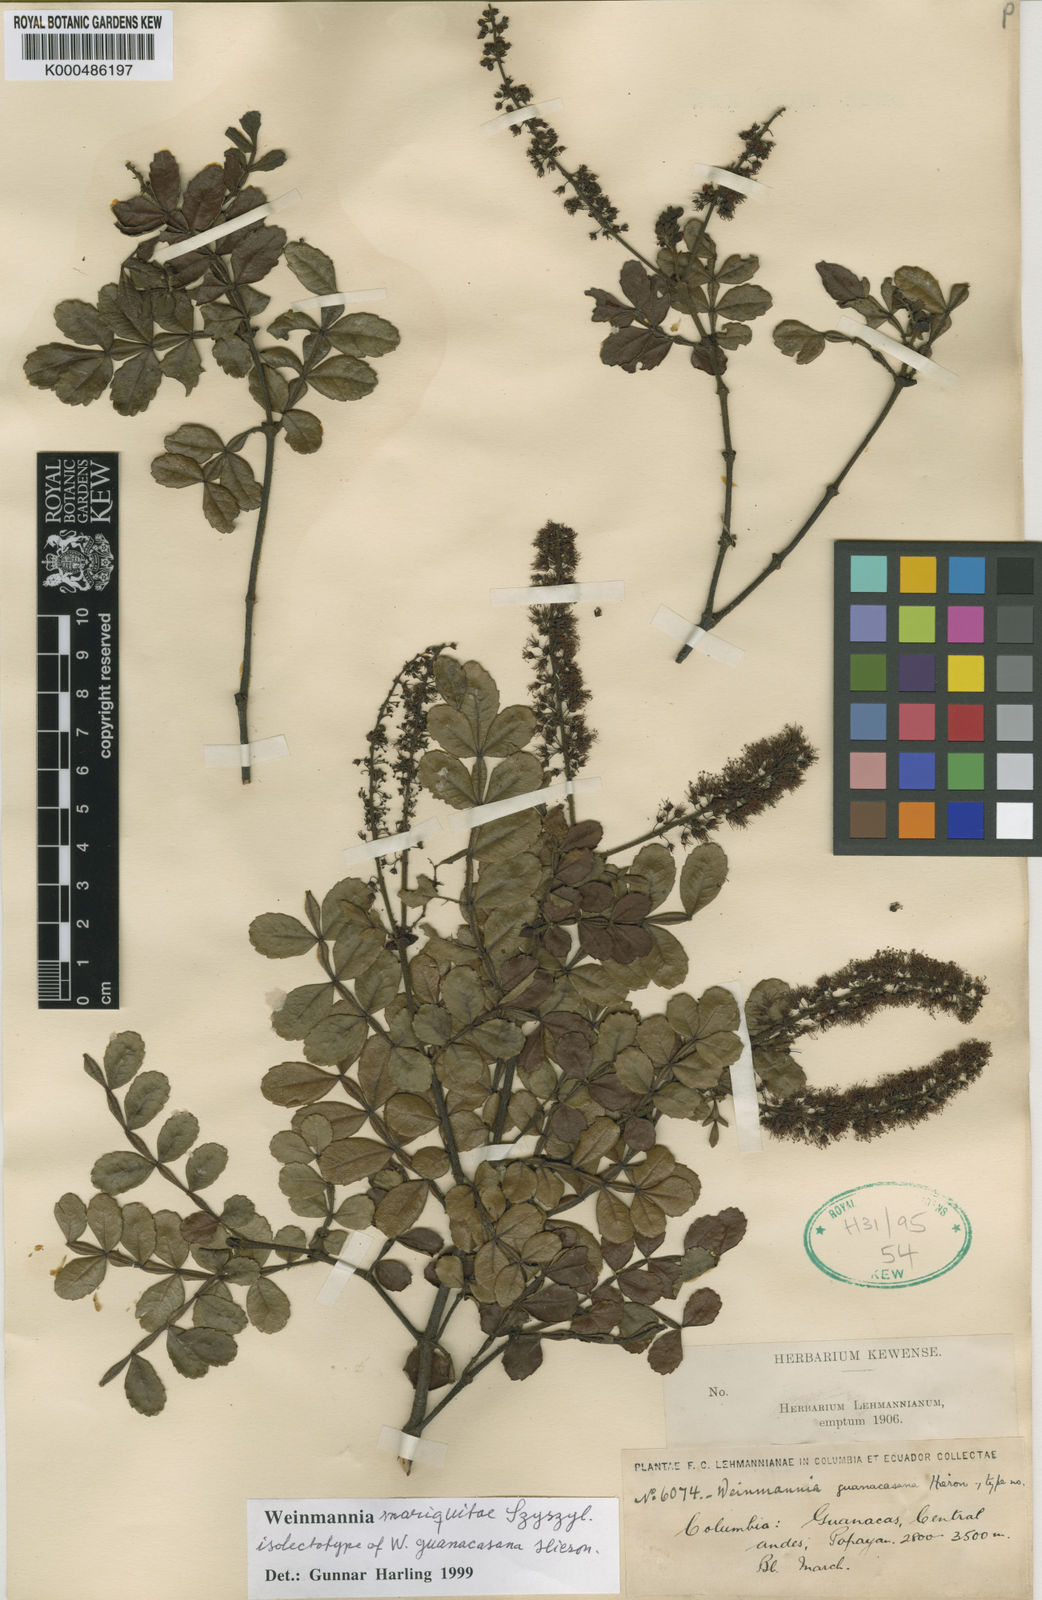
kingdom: Plantae
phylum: Tracheophyta
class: Magnoliopsida
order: Oxalidales
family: Cunoniaceae
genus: Weinmannia
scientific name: Weinmannia mariquitae
